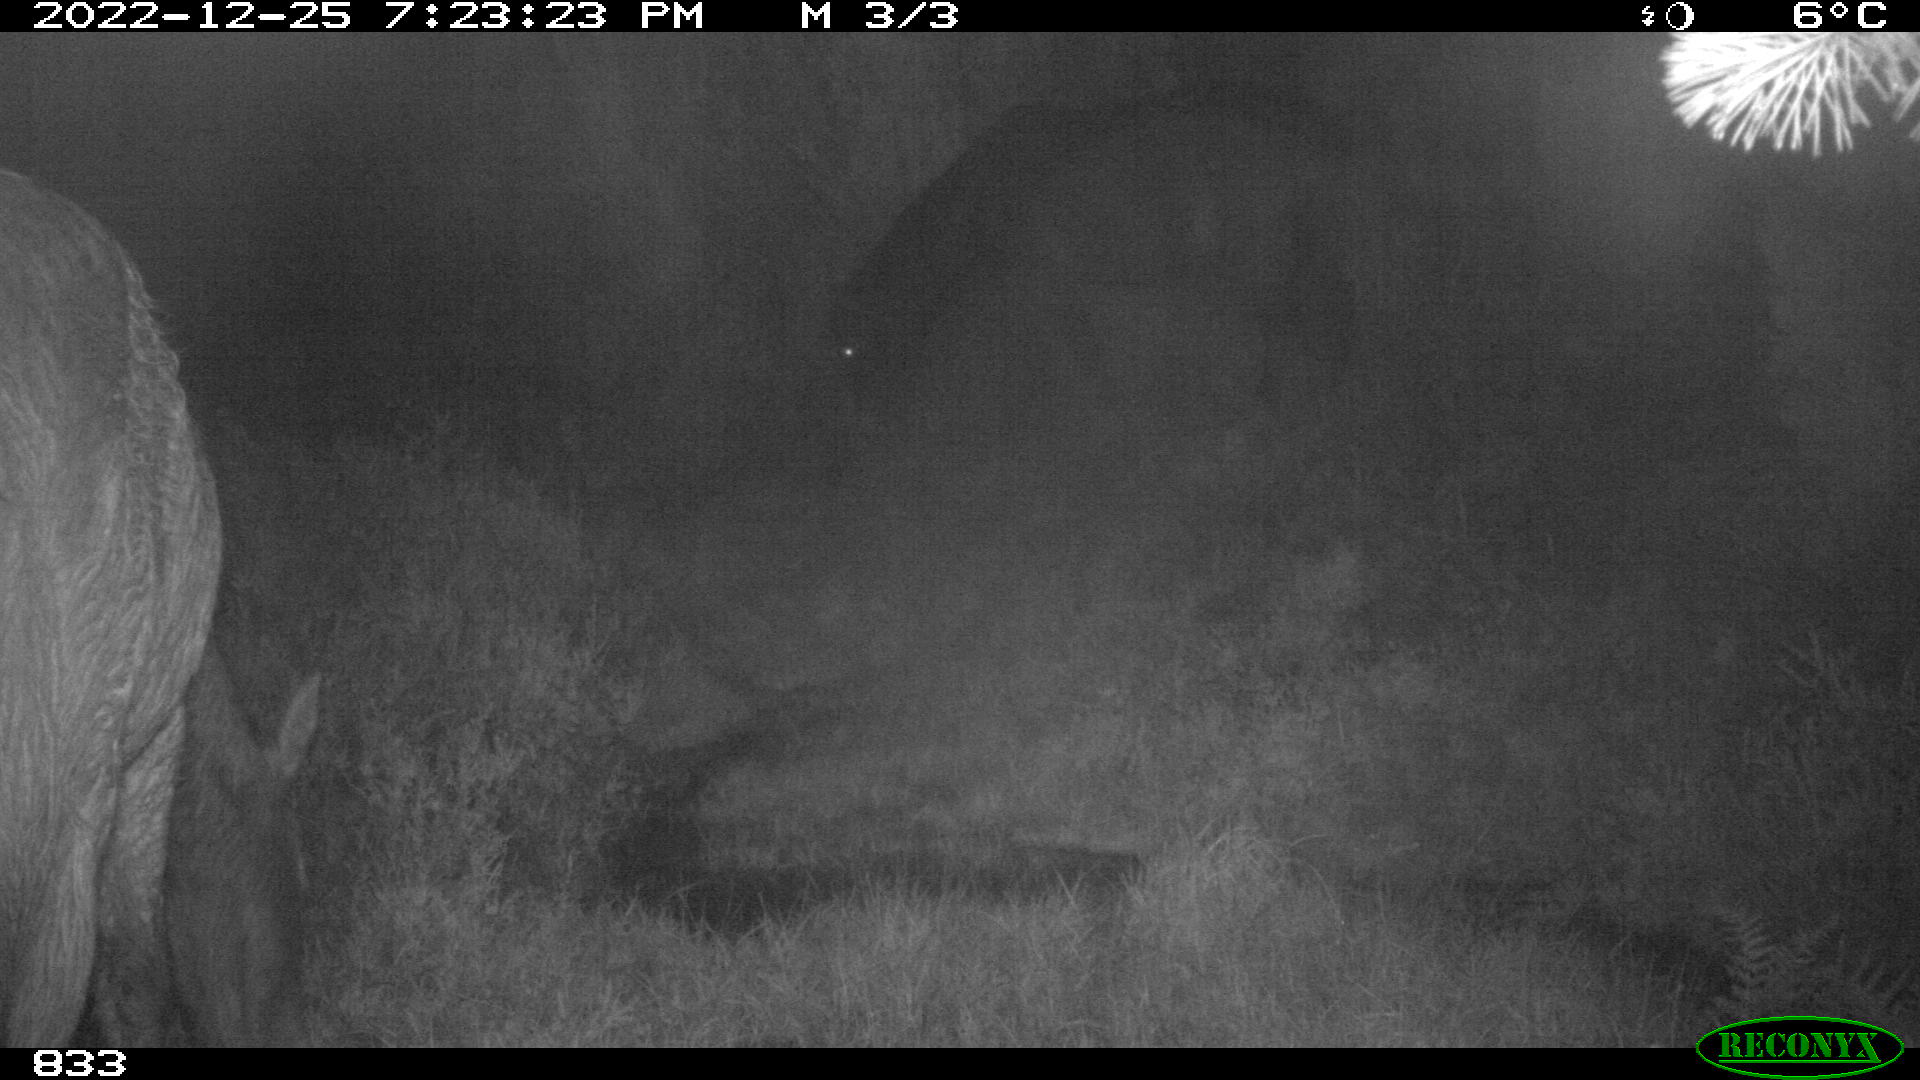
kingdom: Animalia
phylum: Chordata
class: Mammalia
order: Perissodactyla
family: Equidae
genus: Equus
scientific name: Equus caballus
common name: Horse
